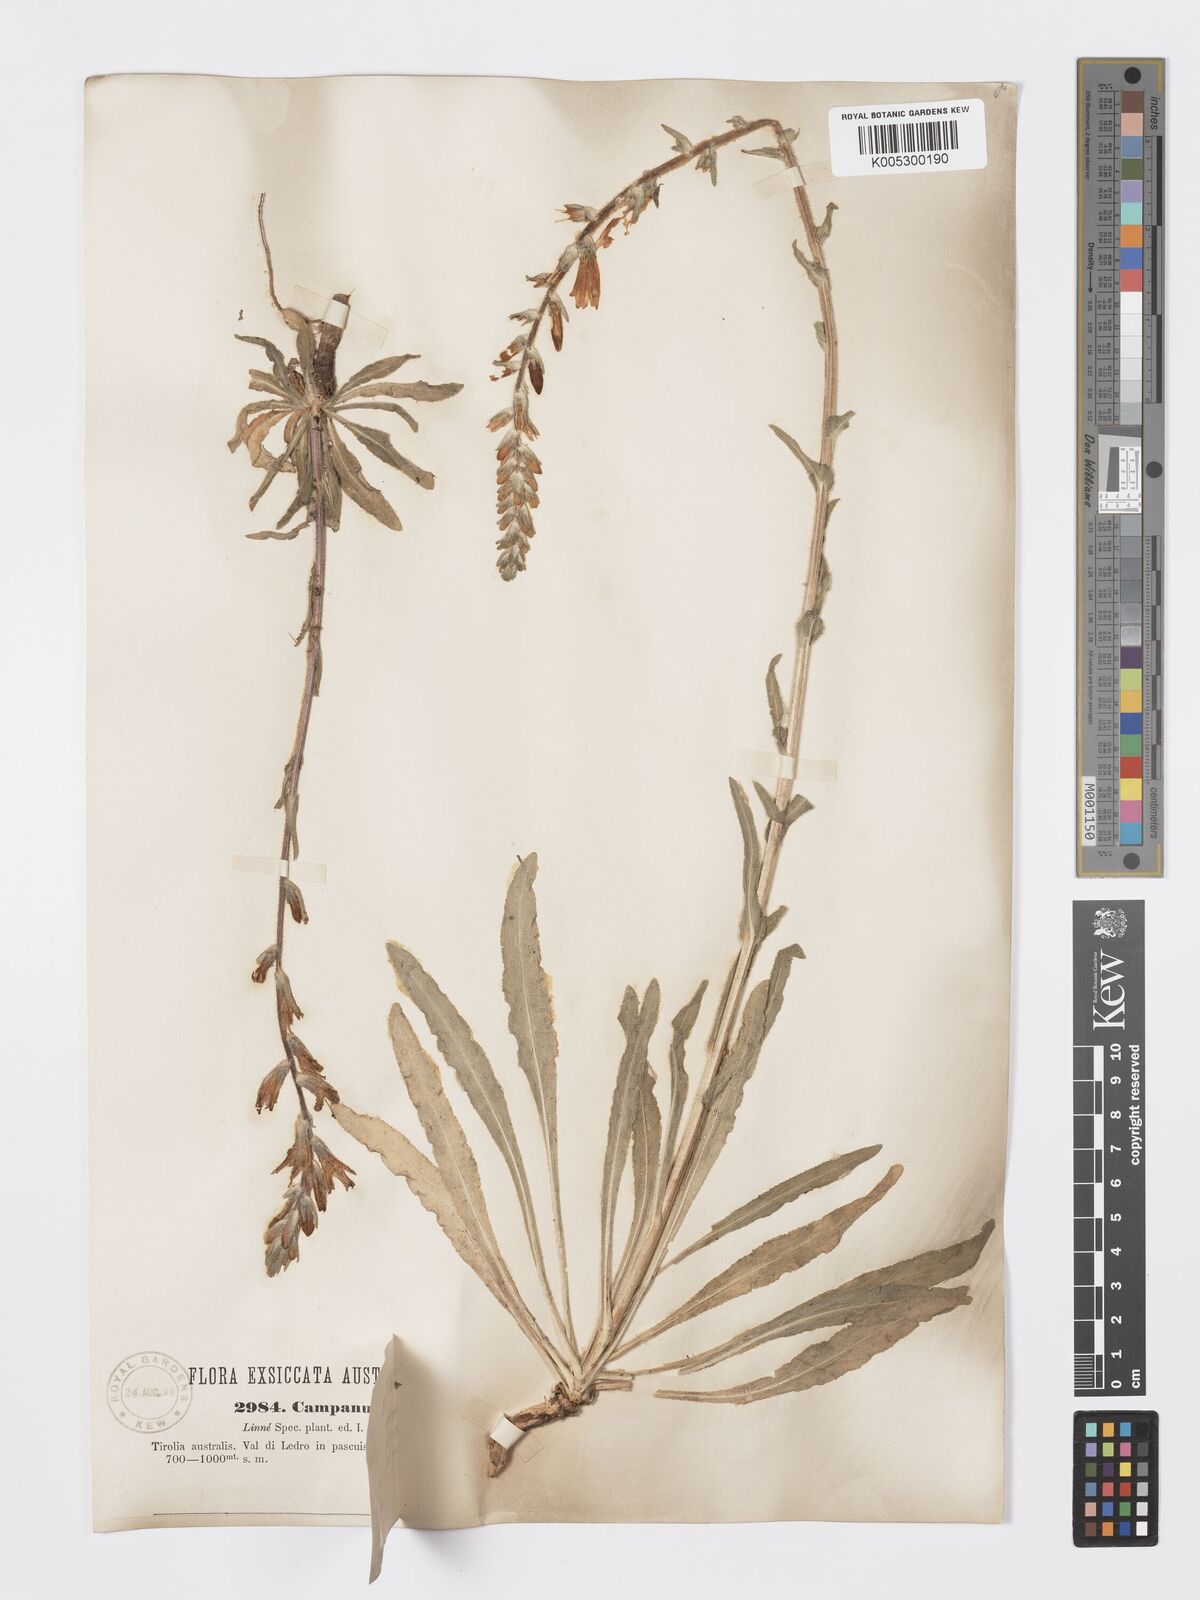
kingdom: Plantae
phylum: Tracheophyta
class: Magnoliopsida
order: Asterales
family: Campanulaceae
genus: Campanula
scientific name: Campanula spicata
